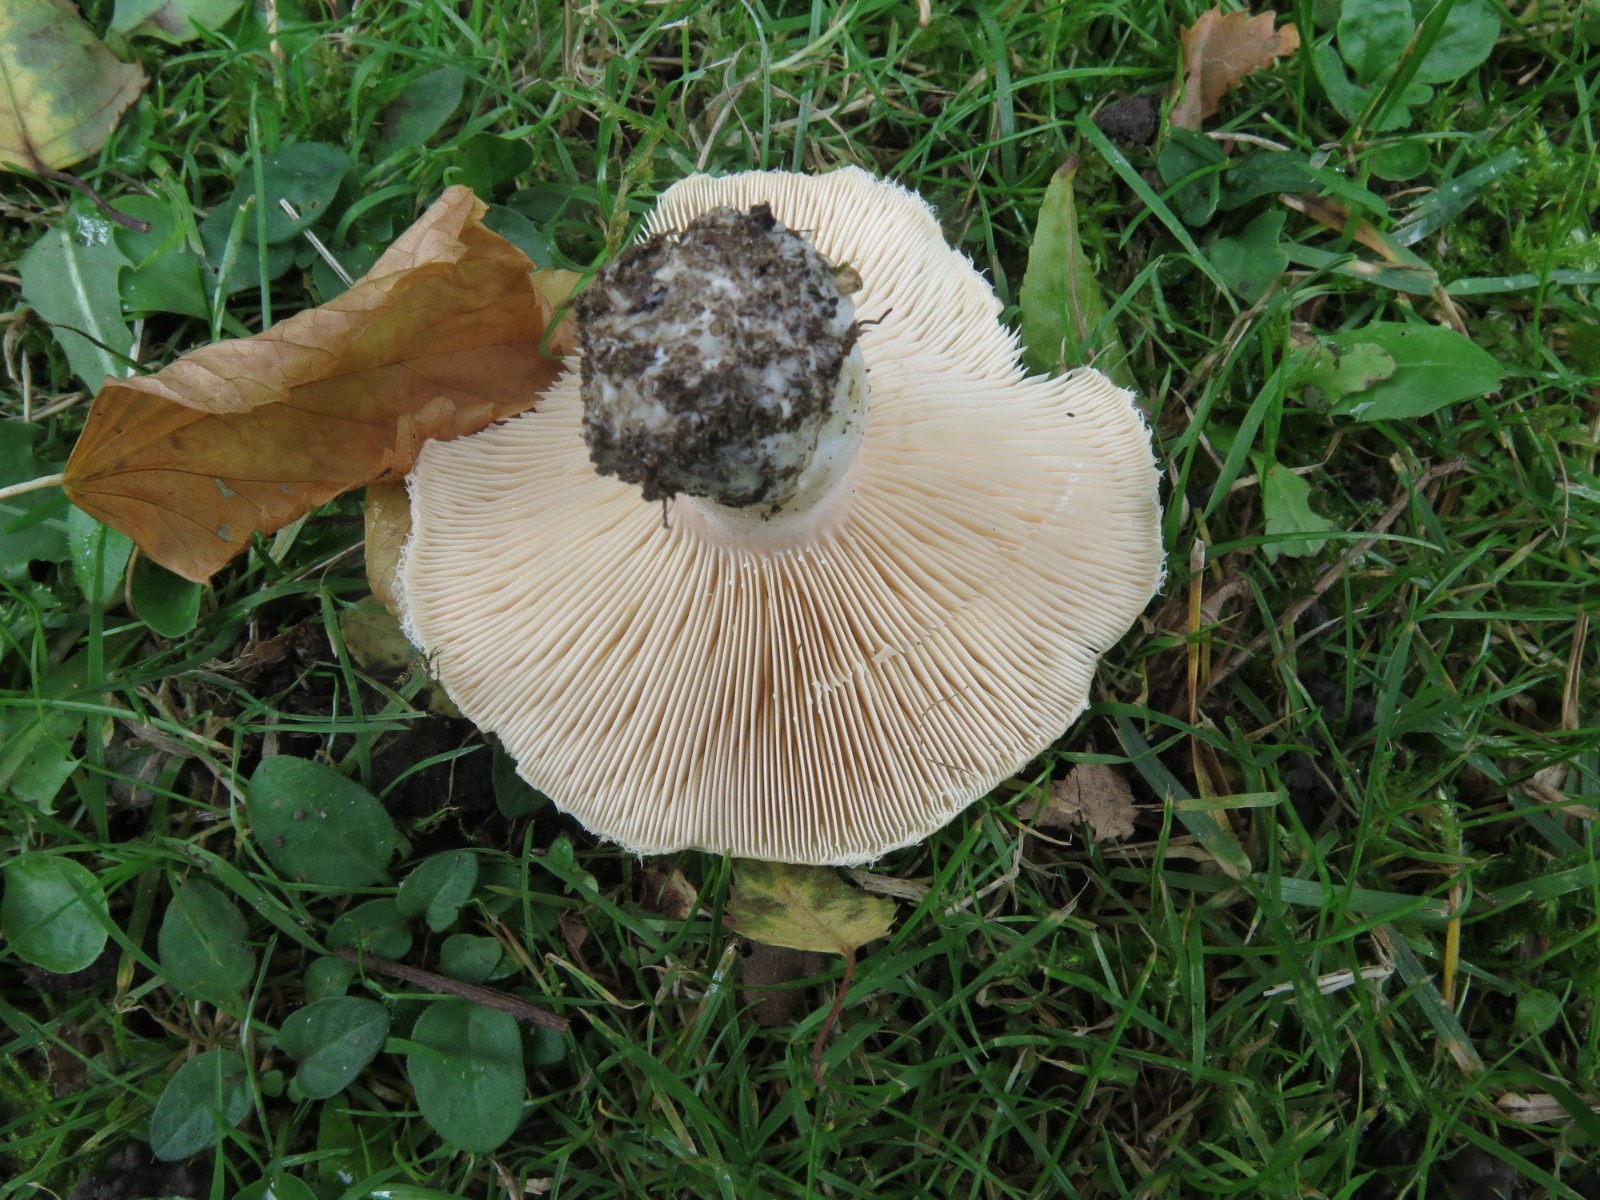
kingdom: Fungi
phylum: Basidiomycota
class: Agaricomycetes
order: Russulales
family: Russulaceae
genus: Lactarius
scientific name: Lactarius pubescens
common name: dunet mælkehat
